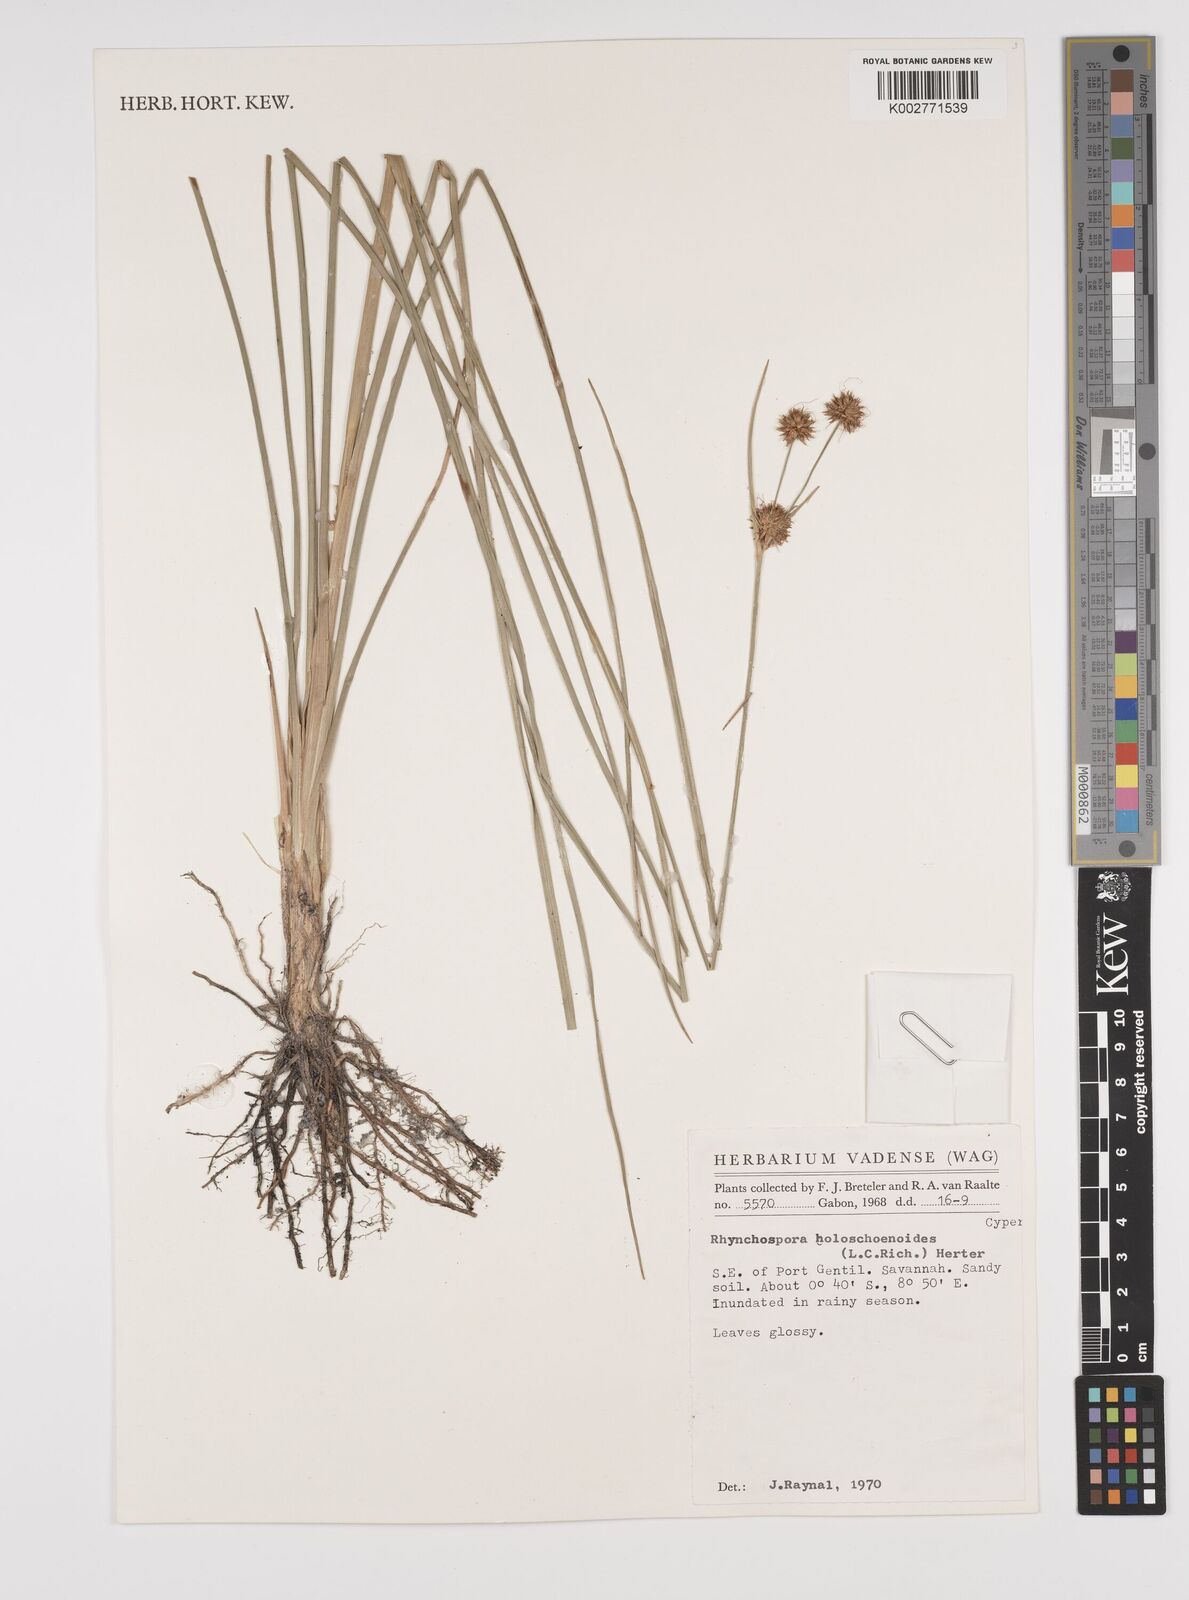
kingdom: Plantae
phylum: Tracheophyta
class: Liliopsida
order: Poales
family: Cyperaceae
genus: Rhynchospora
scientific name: Rhynchospora holoschoenoides
